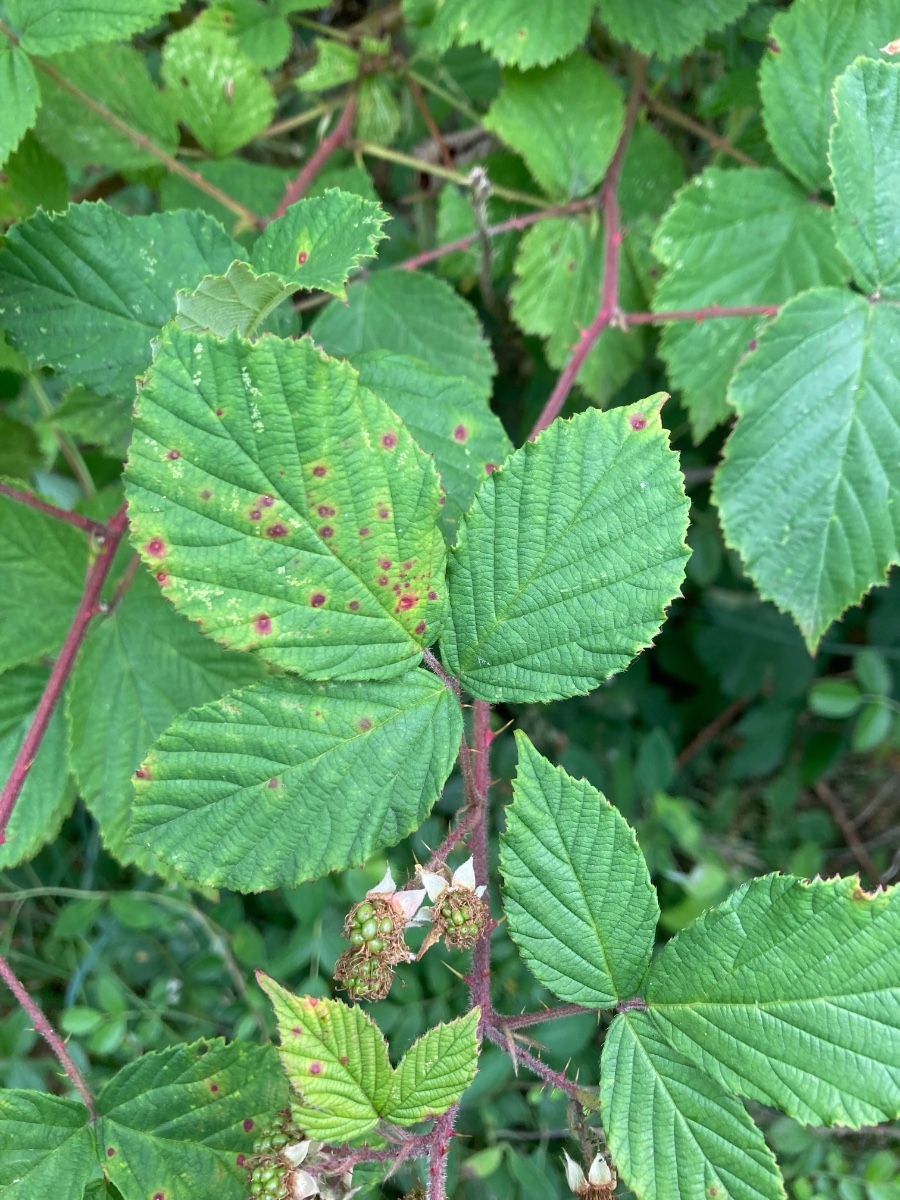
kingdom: Fungi
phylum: Basidiomycota
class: Pucciniomycetes
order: Pucciniales
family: Phragmidiaceae
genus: Phragmidium
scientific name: Phragmidium violaceum
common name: violet flercellerust
